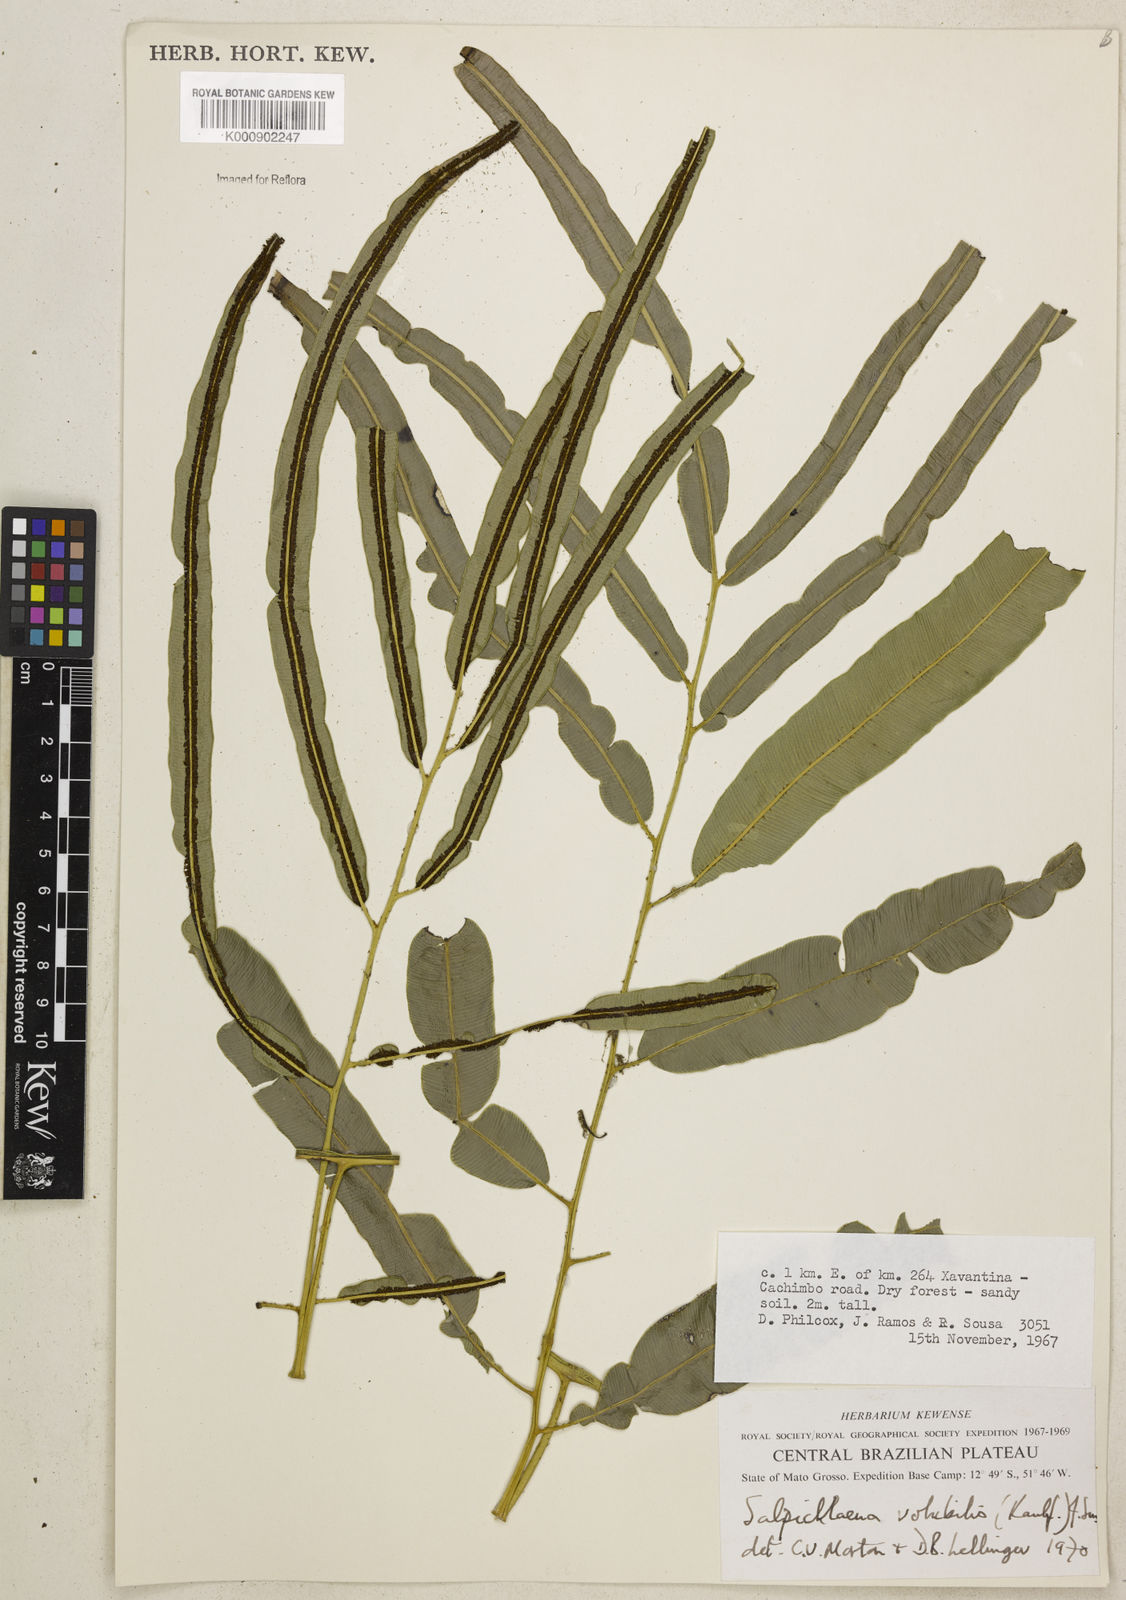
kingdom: Plantae
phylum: Tracheophyta
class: Polypodiopsida
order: Polypodiales
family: Blechnaceae
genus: Salpichlaena
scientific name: Salpichlaena volubilis
